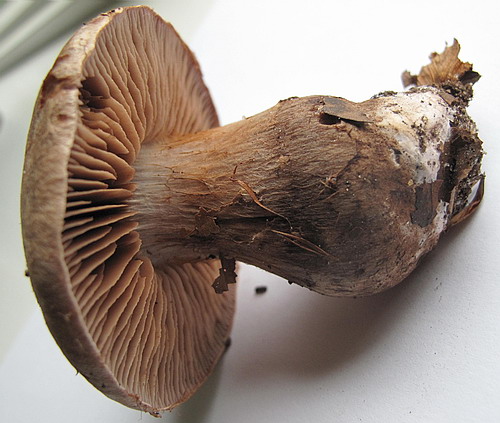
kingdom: Fungi
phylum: Basidiomycota
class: Agaricomycetes
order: Agaricales
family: Cortinariaceae
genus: Cortinarius
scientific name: Cortinarius sordescens
